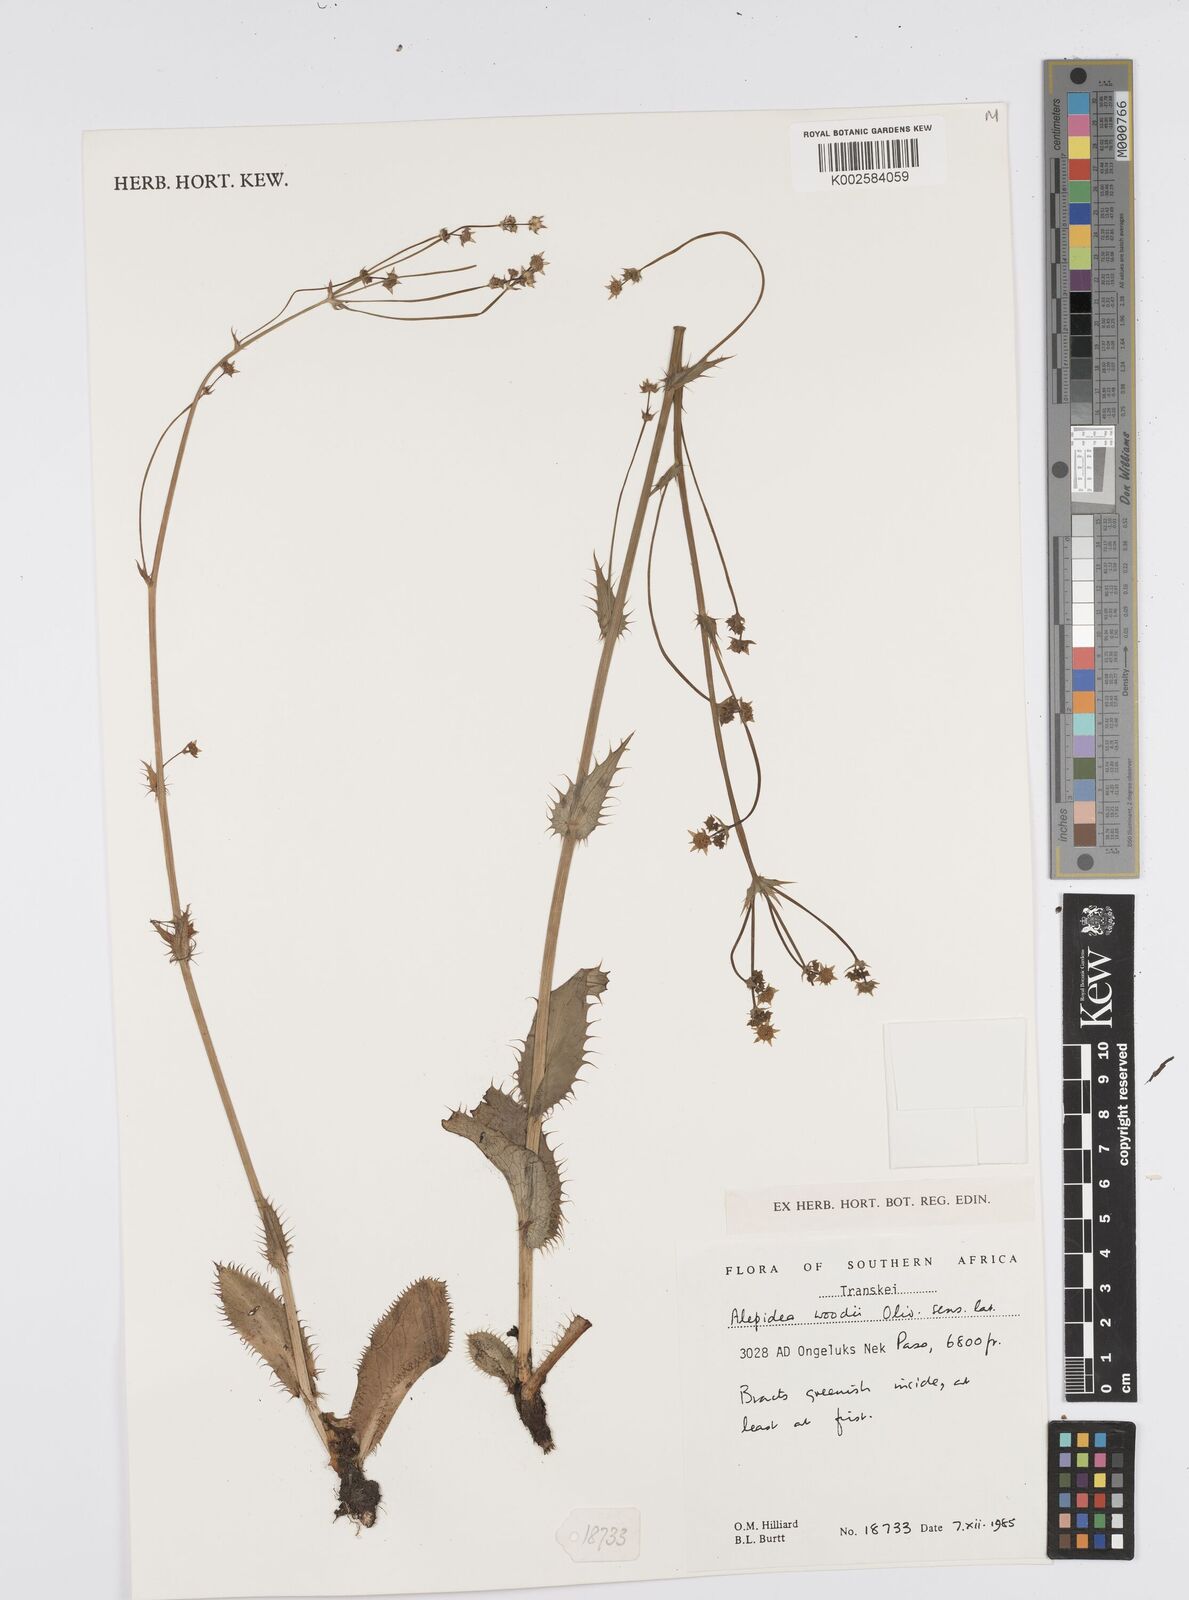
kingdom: Plantae
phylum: Tracheophyta
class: Magnoliopsida
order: Apiales
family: Apiaceae
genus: Alepidea
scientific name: Alepidea woodii
